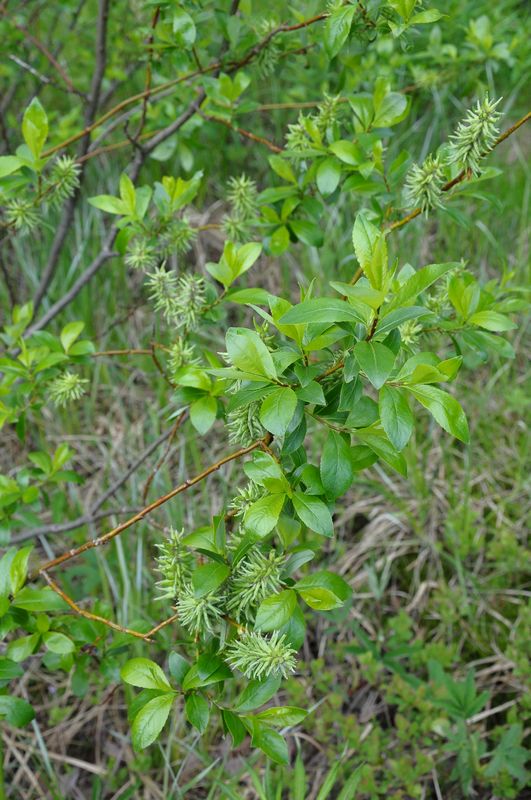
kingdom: Plantae
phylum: Tracheophyta
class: Magnoliopsida
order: Malpighiales
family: Salicaceae
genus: Salix
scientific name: Salix phylicifolia
